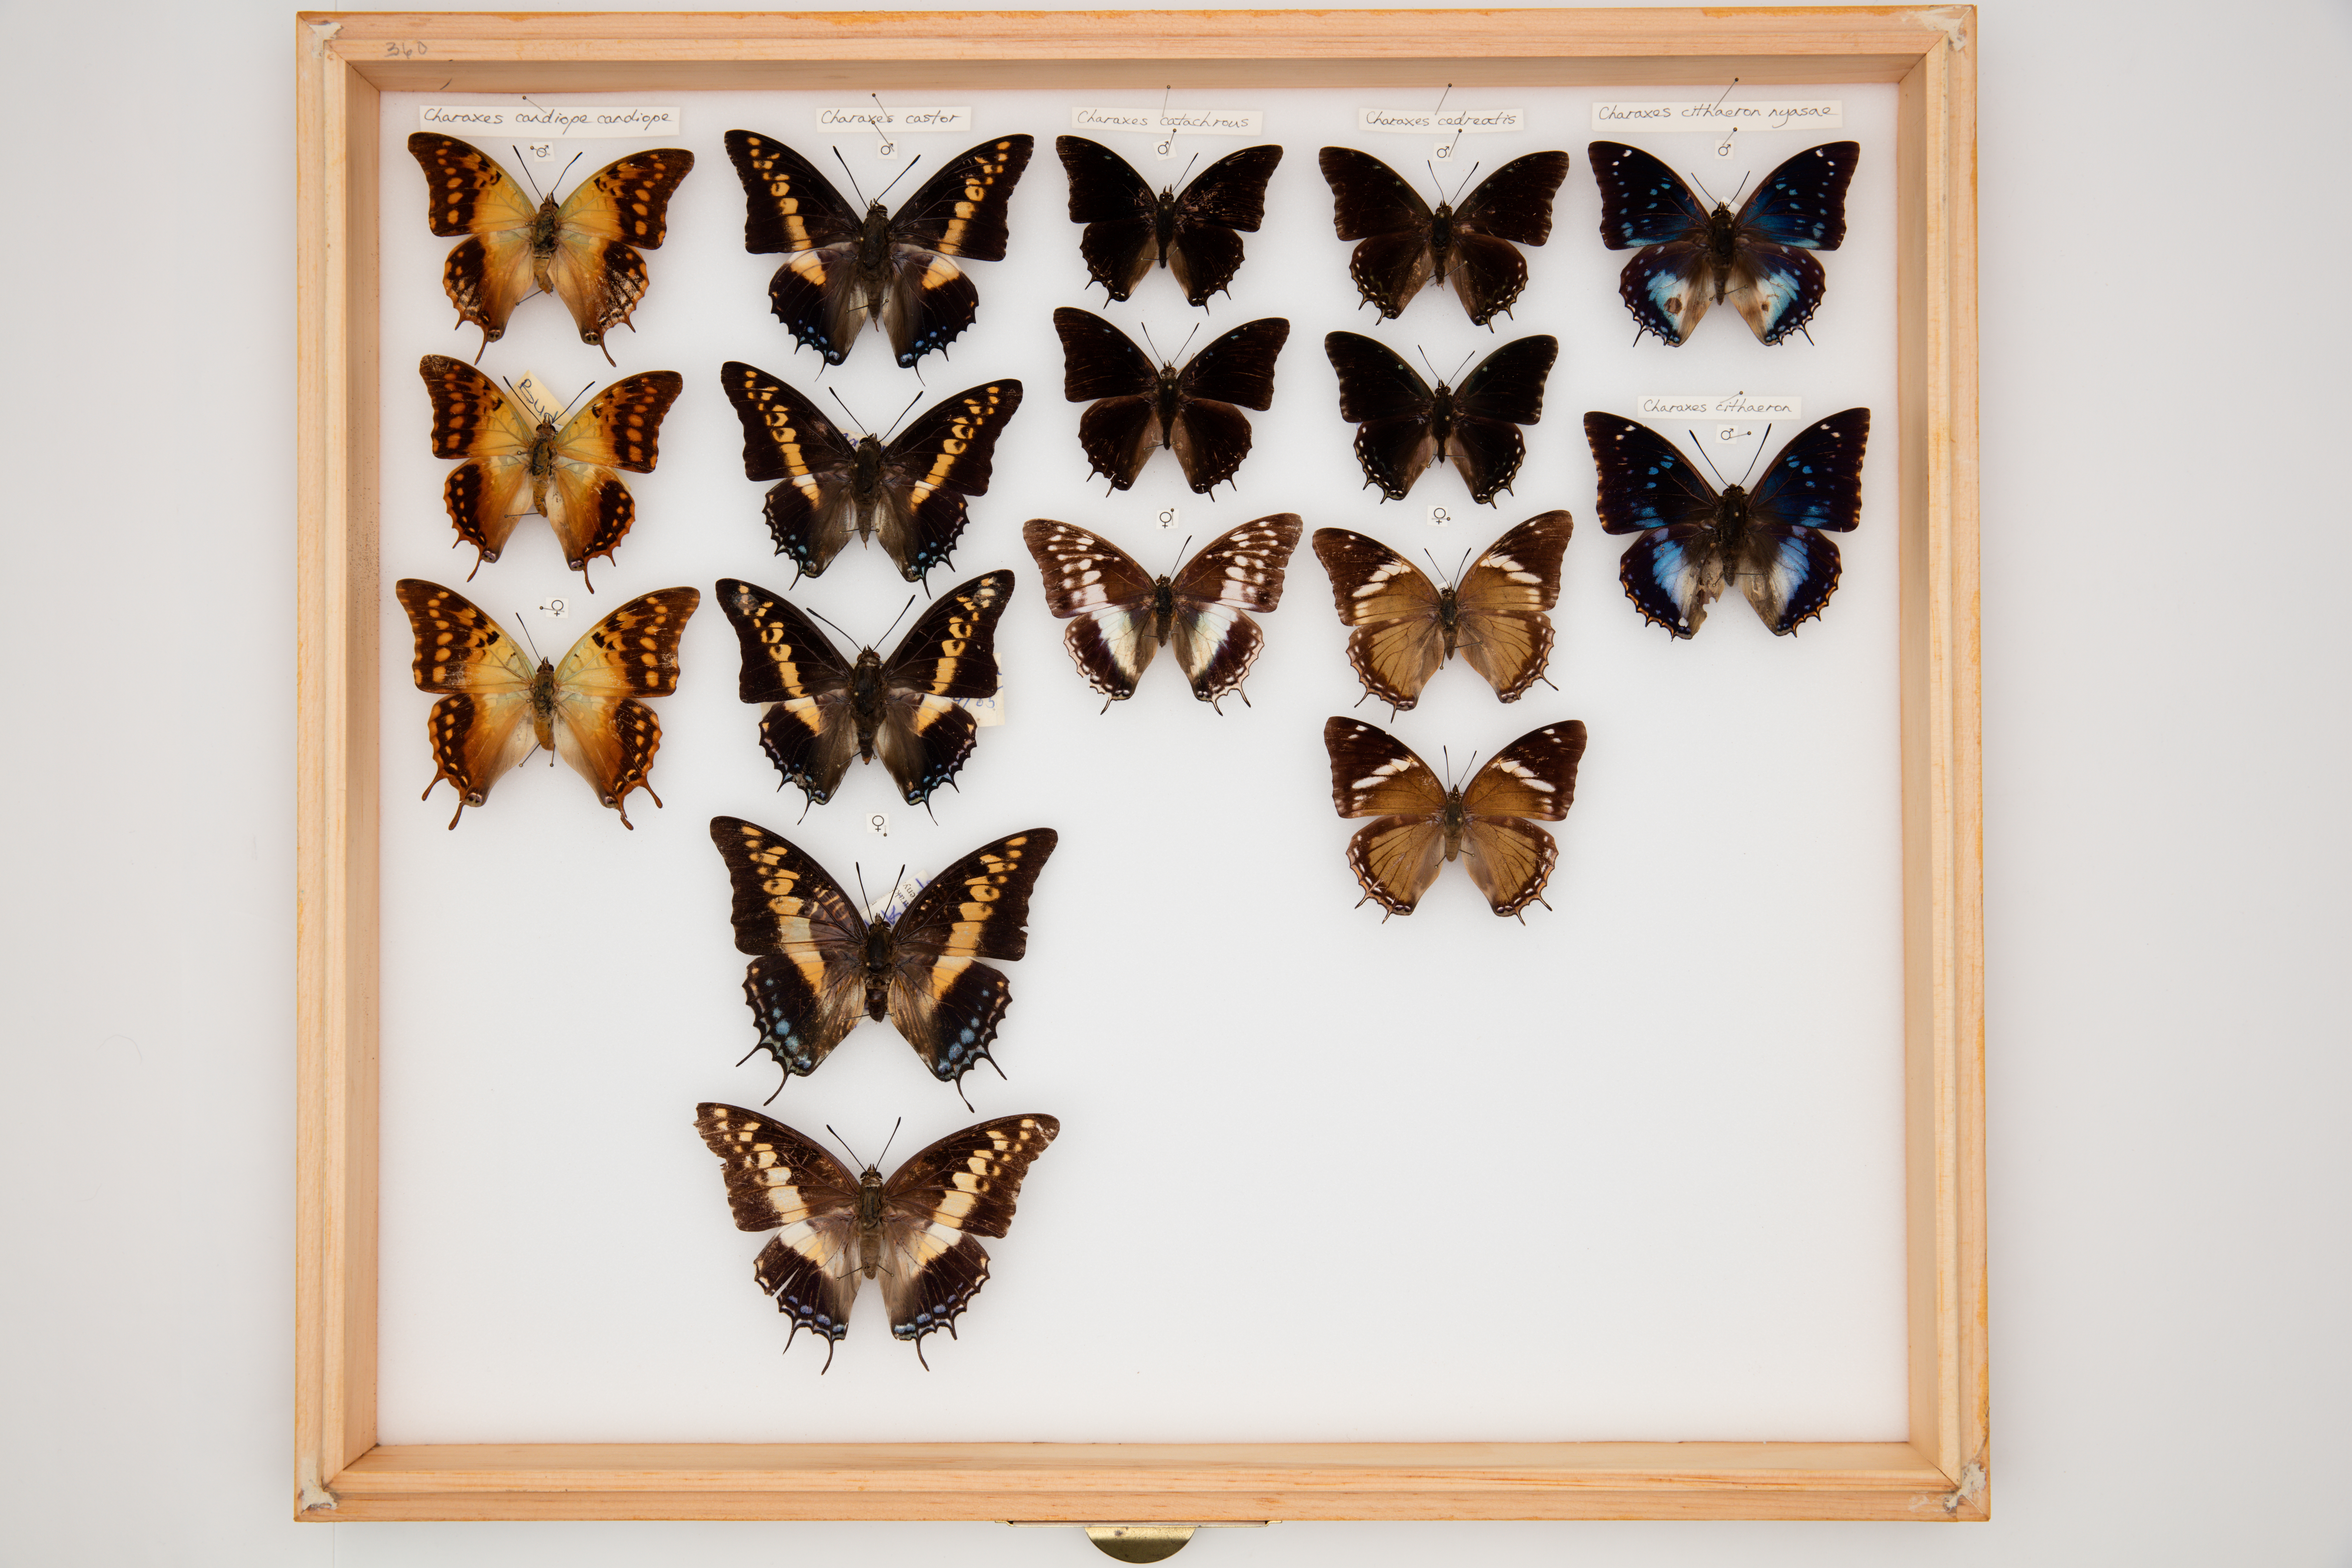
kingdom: Animalia
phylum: Arthropoda
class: Insecta
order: Lepidoptera
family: Nymphalidae
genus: Charaxes
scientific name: Charaxes castor
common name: Giant charaxes
